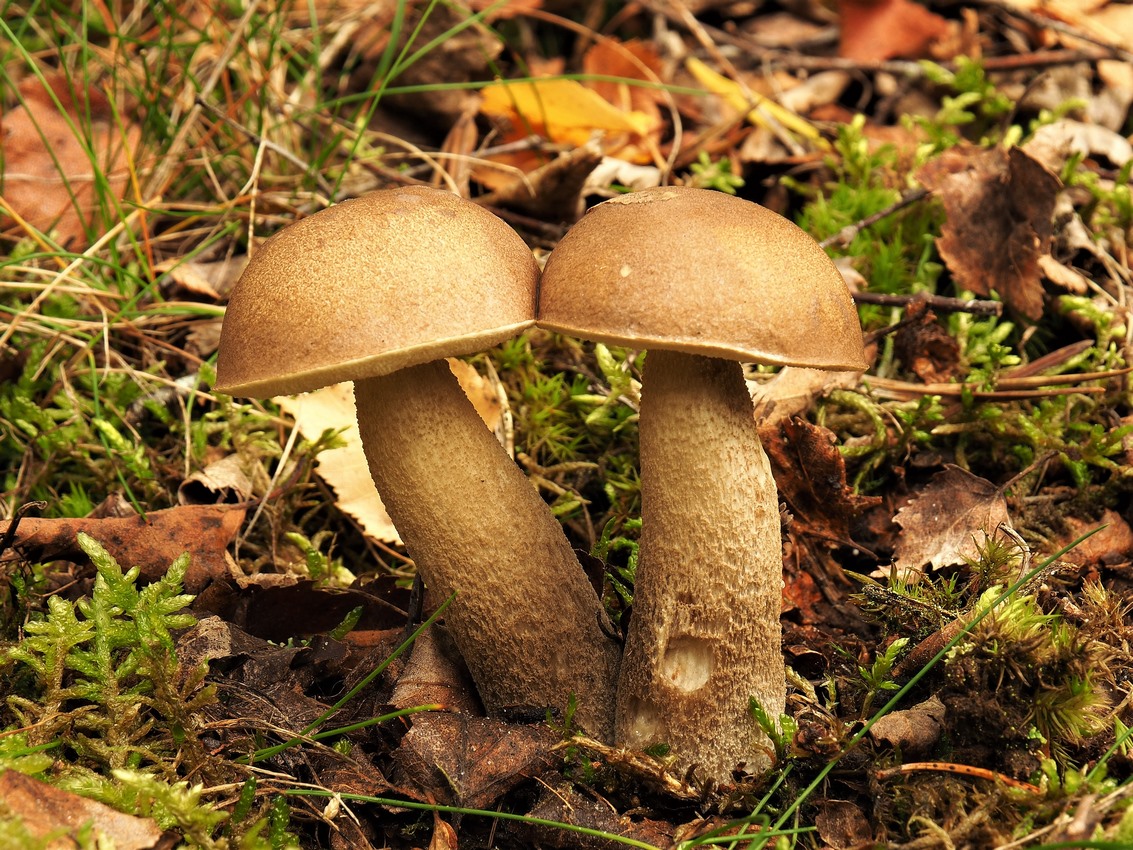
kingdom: Fungi
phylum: Basidiomycota
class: Agaricomycetes
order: Boletales
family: Boletaceae
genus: Leccinum
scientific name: Leccinum
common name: skælrørhat
